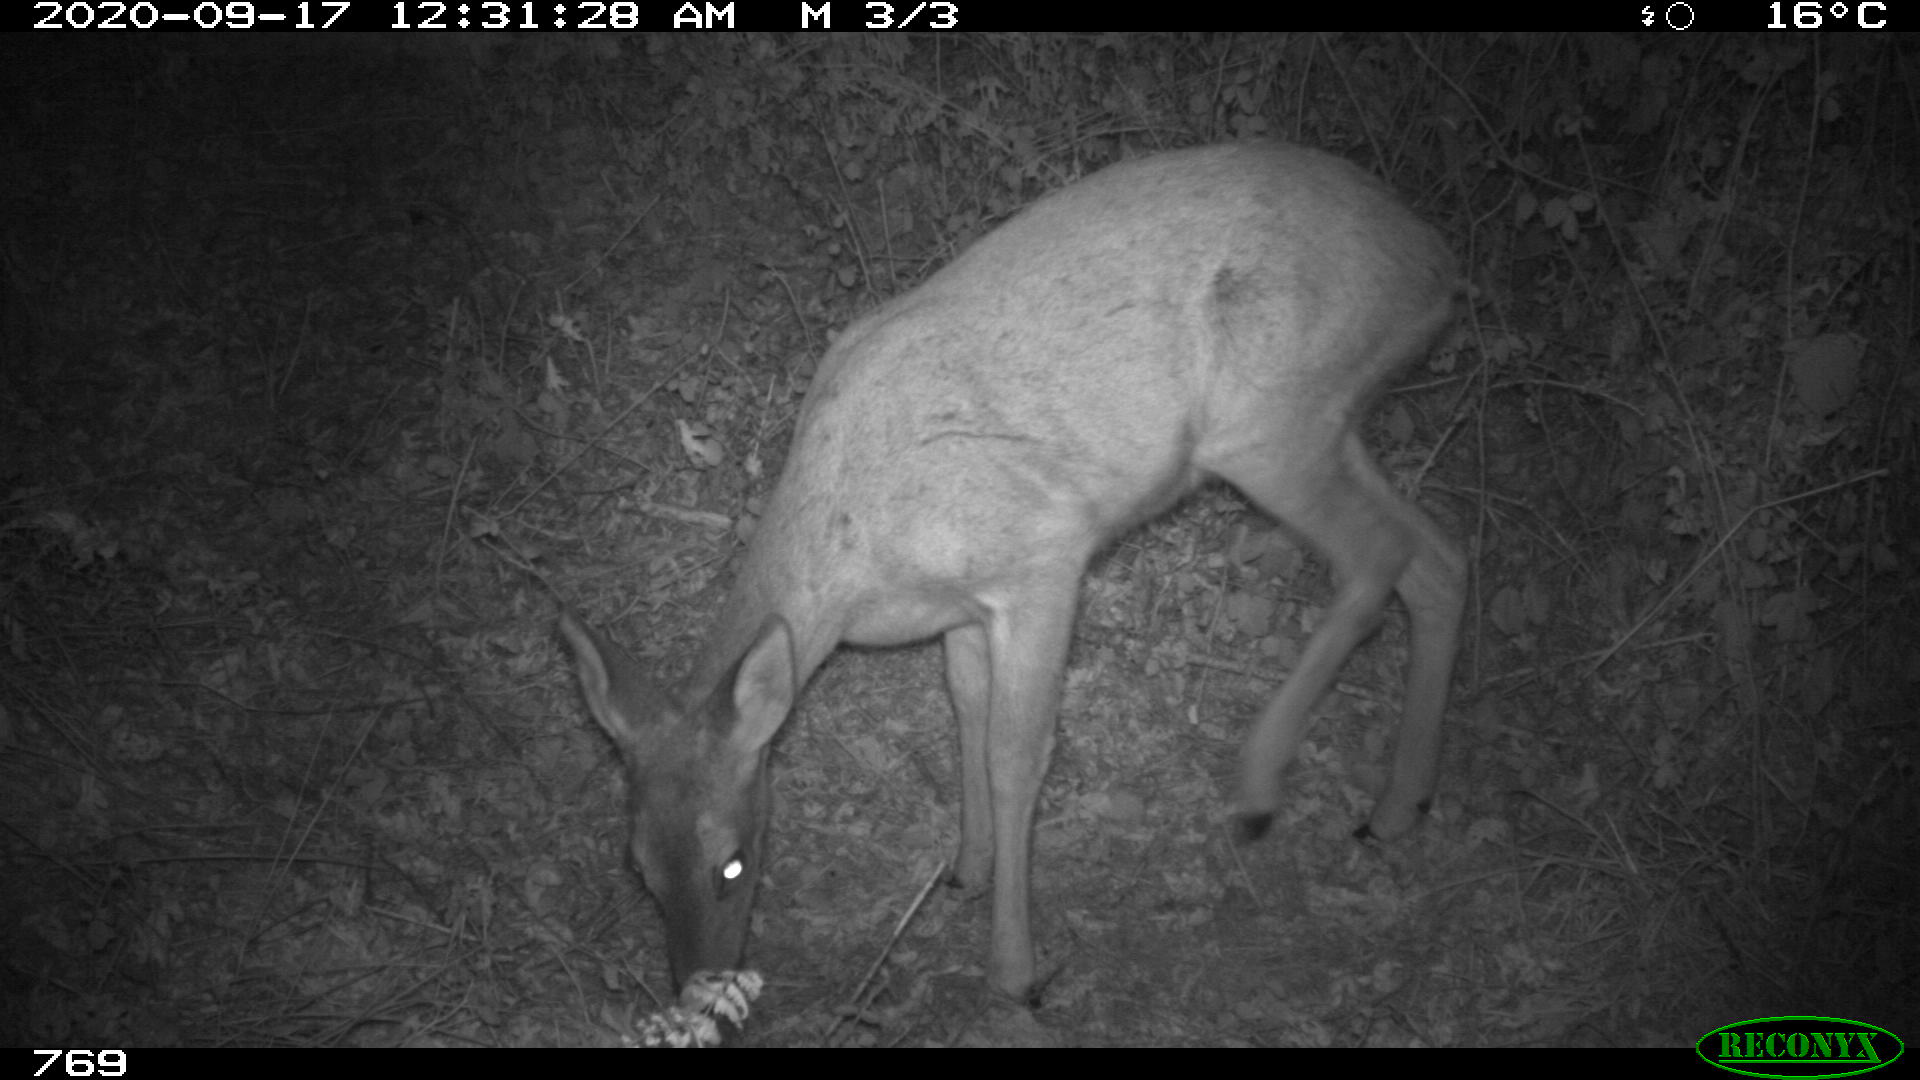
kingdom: Animalia
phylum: Chordata
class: Mammalia
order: Artiodactyla
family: Cervidae
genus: Capreolus
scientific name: Capreolus capreolus
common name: Western roe deer
